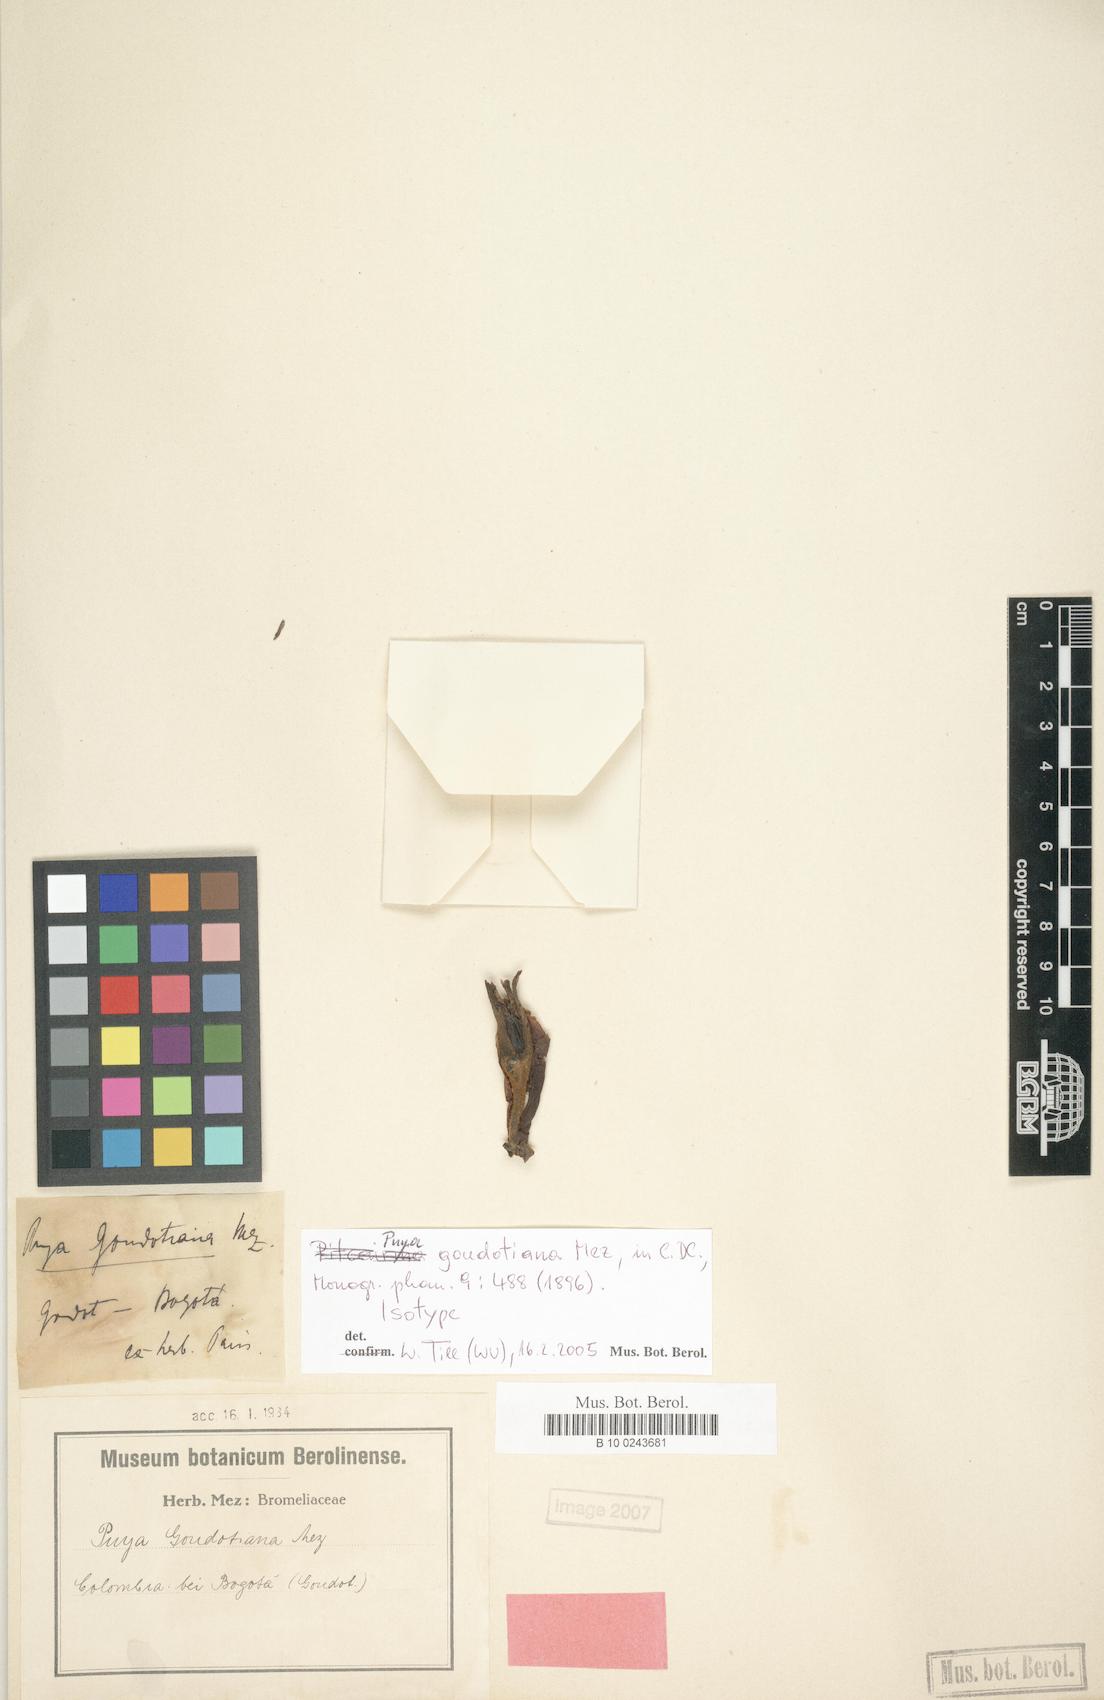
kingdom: Plantae
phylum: Tracheophyta
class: Liliopsida
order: Poales
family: Bromeliaceae
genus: Puya
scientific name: Puya goudotiana
